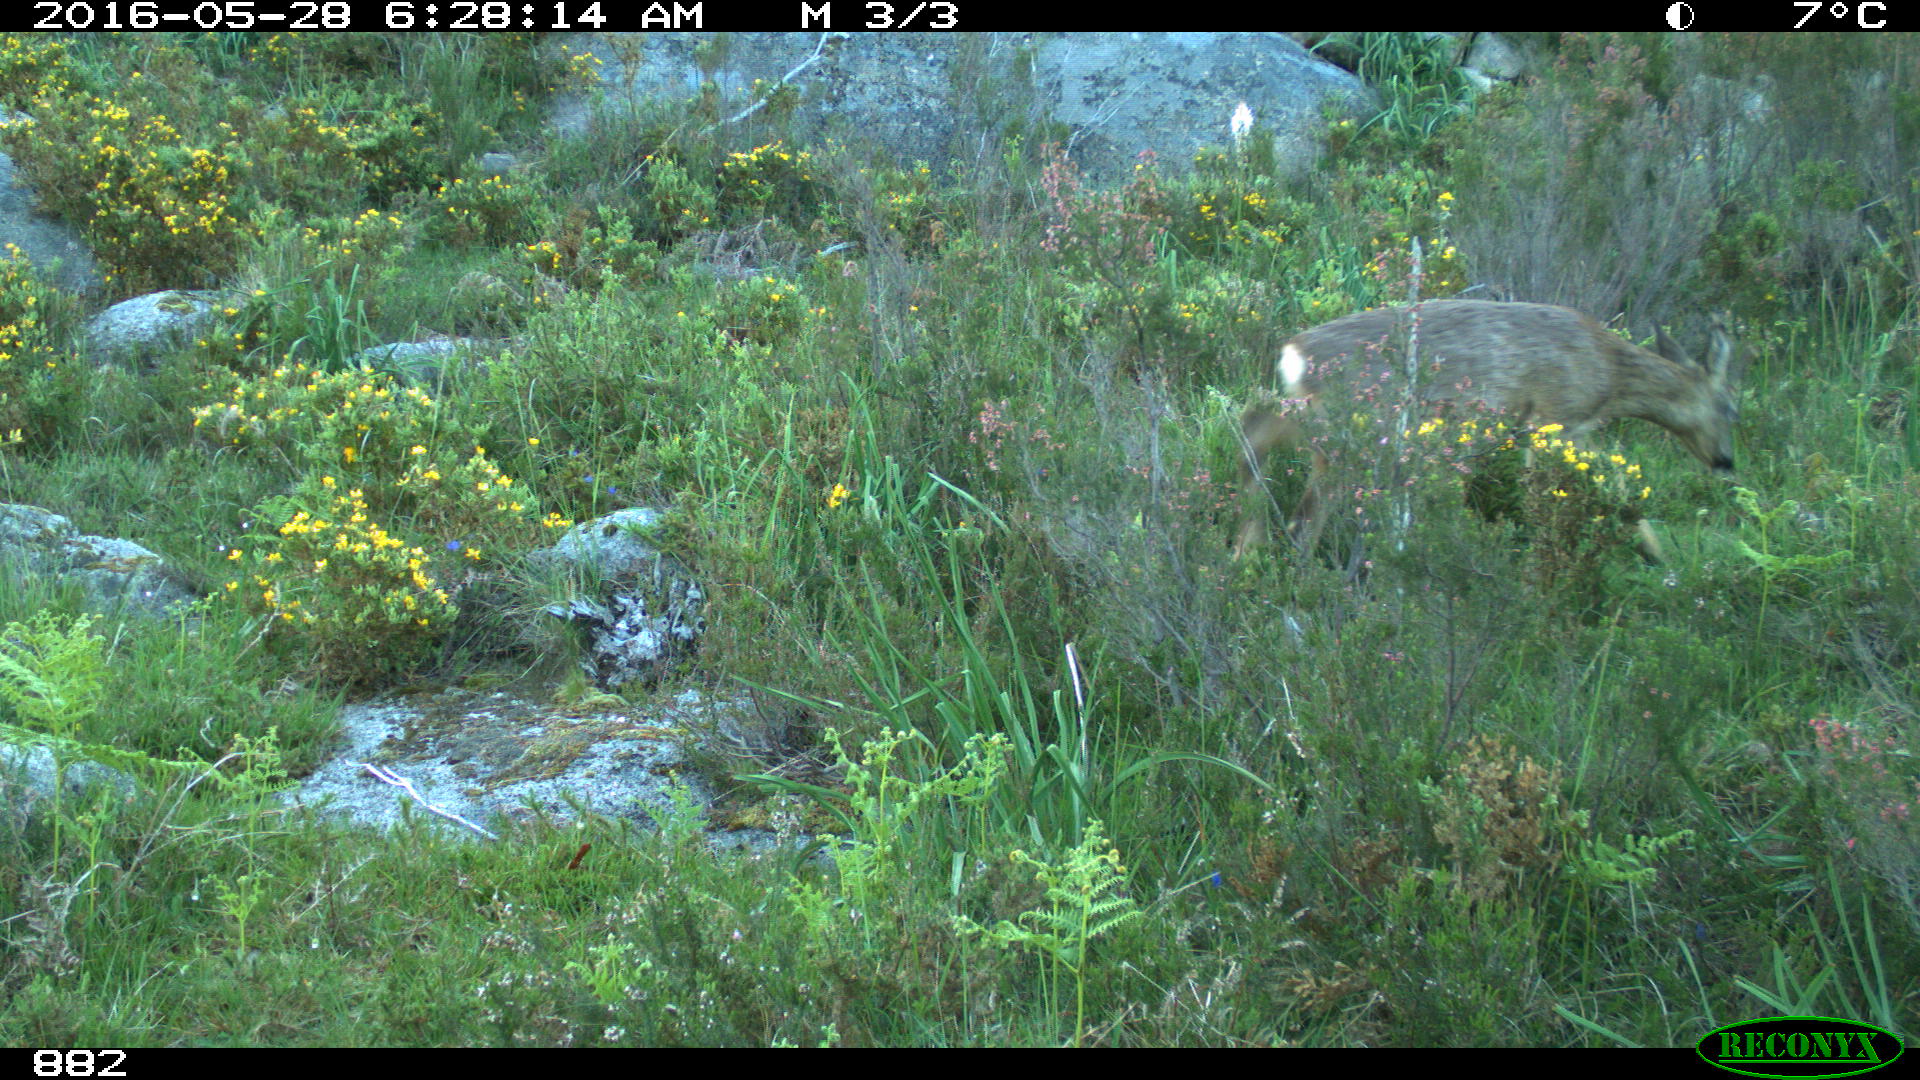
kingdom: Animalia
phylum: Chordata
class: Mammalia
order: Artiodactyla
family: Cervidae
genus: Capreolus
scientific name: Capreolus capreolus
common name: Western roe deer
